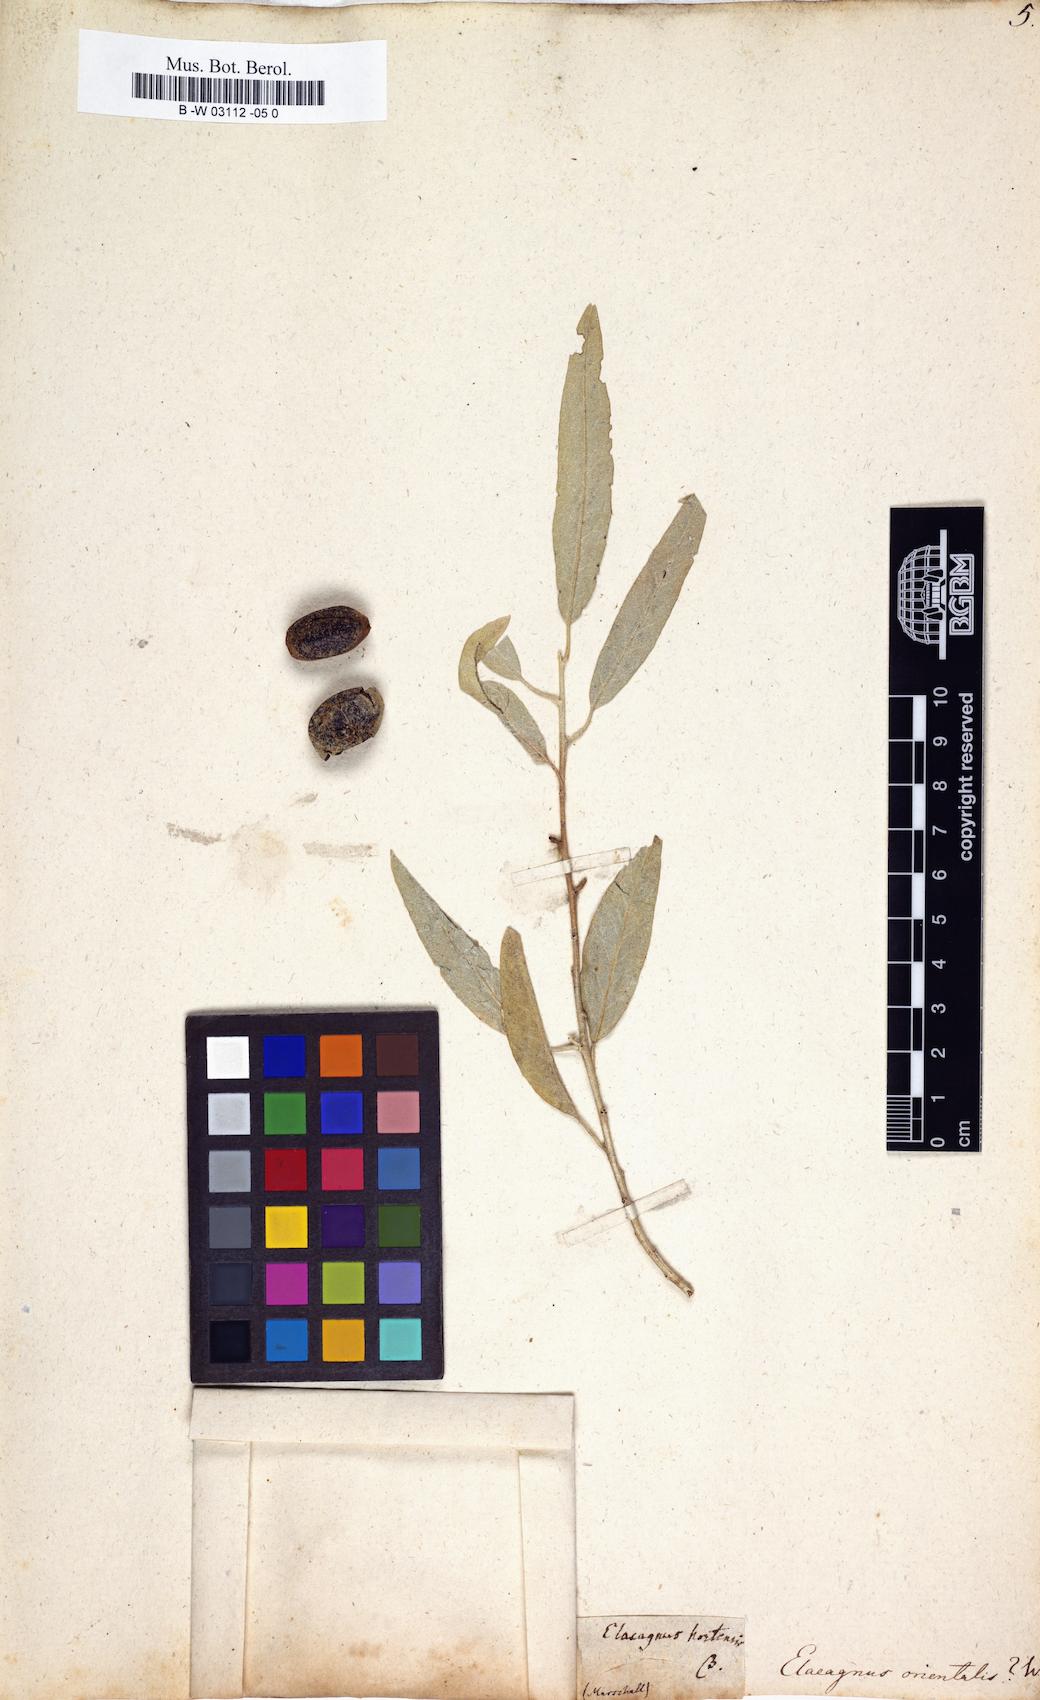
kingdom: Plantae
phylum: Tracheophyta
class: Magnoliopsida
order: Rosales
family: Elaeagnaceae
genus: Elaeagnus
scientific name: Elaeagnus angustifolia
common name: Russian olive
